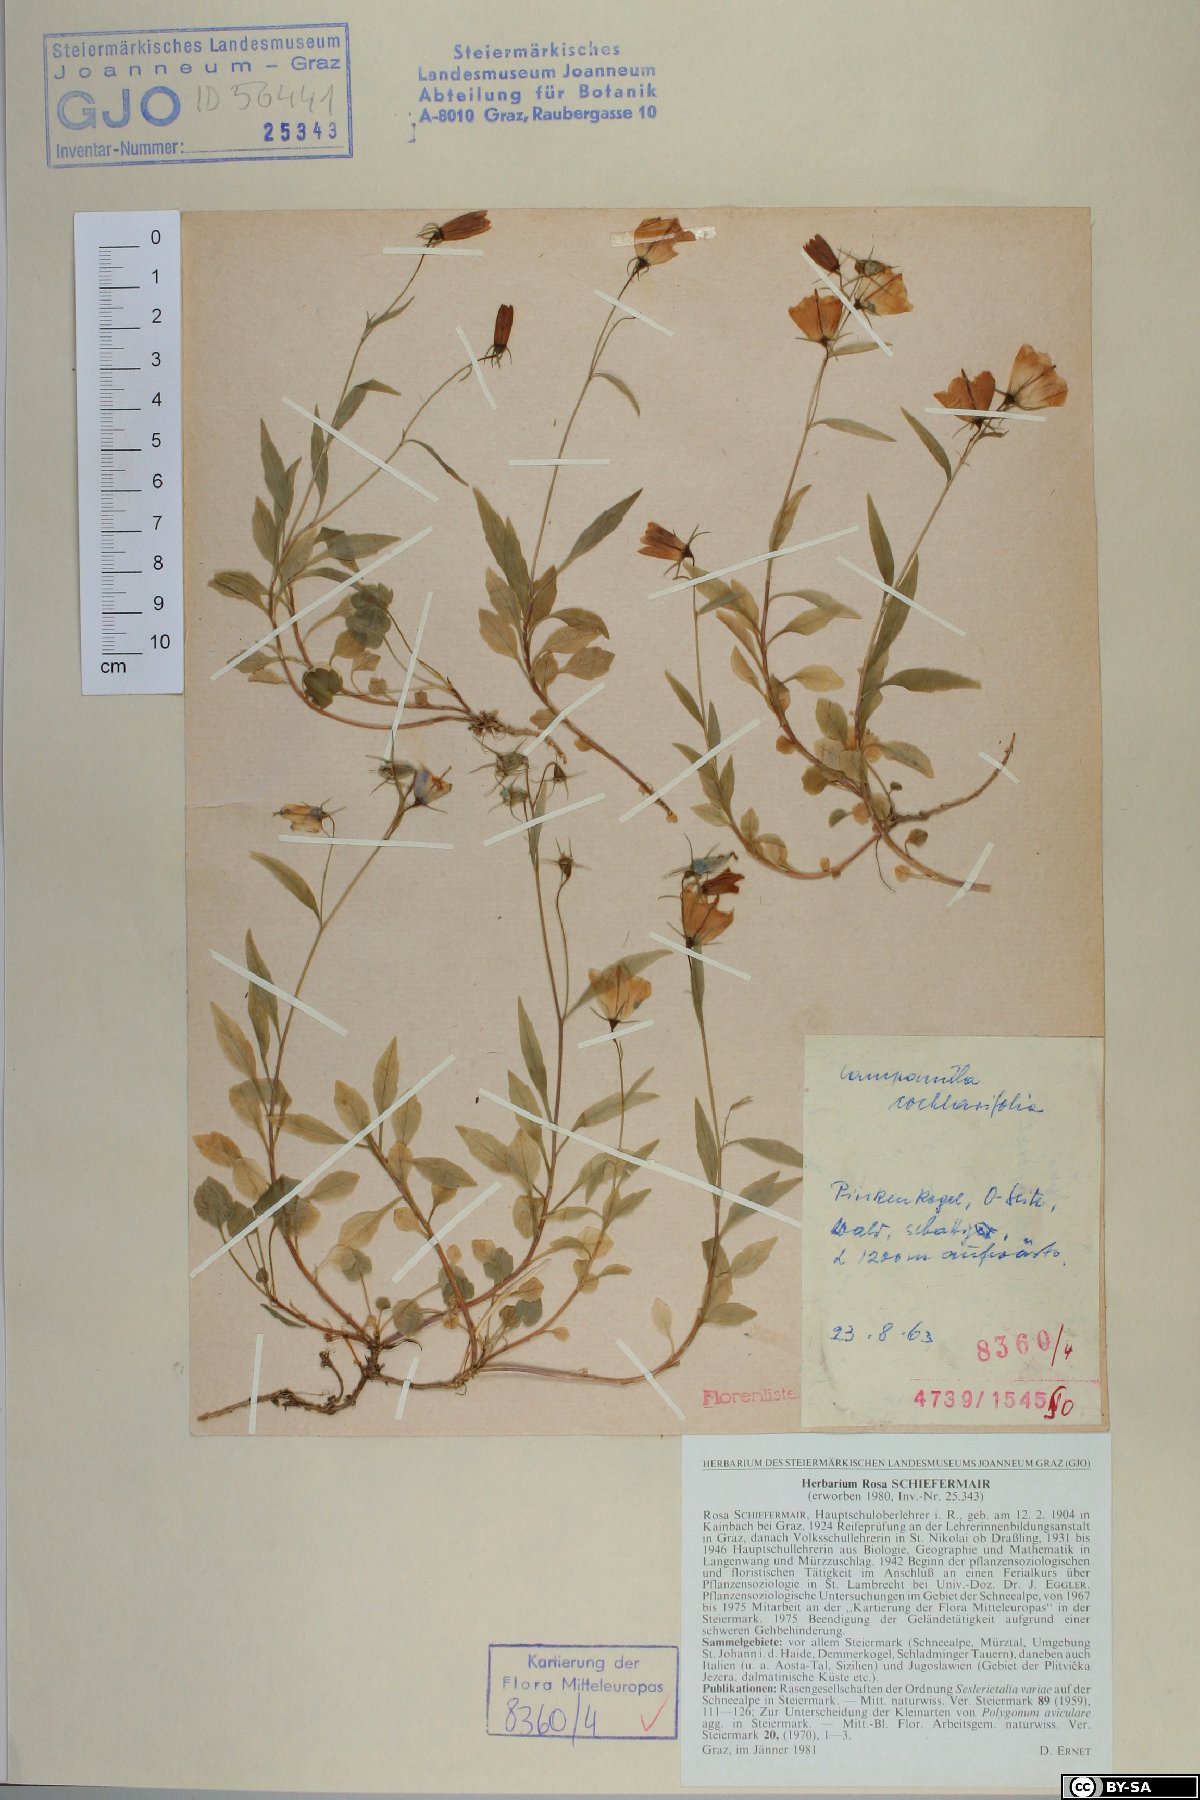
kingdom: Plantae
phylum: Tracheophyta
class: Magnoliopsida
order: Asterales
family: Campanulaceae
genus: Campanula
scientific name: Campanula cochleariifolia
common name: Fairies'-thimbles
